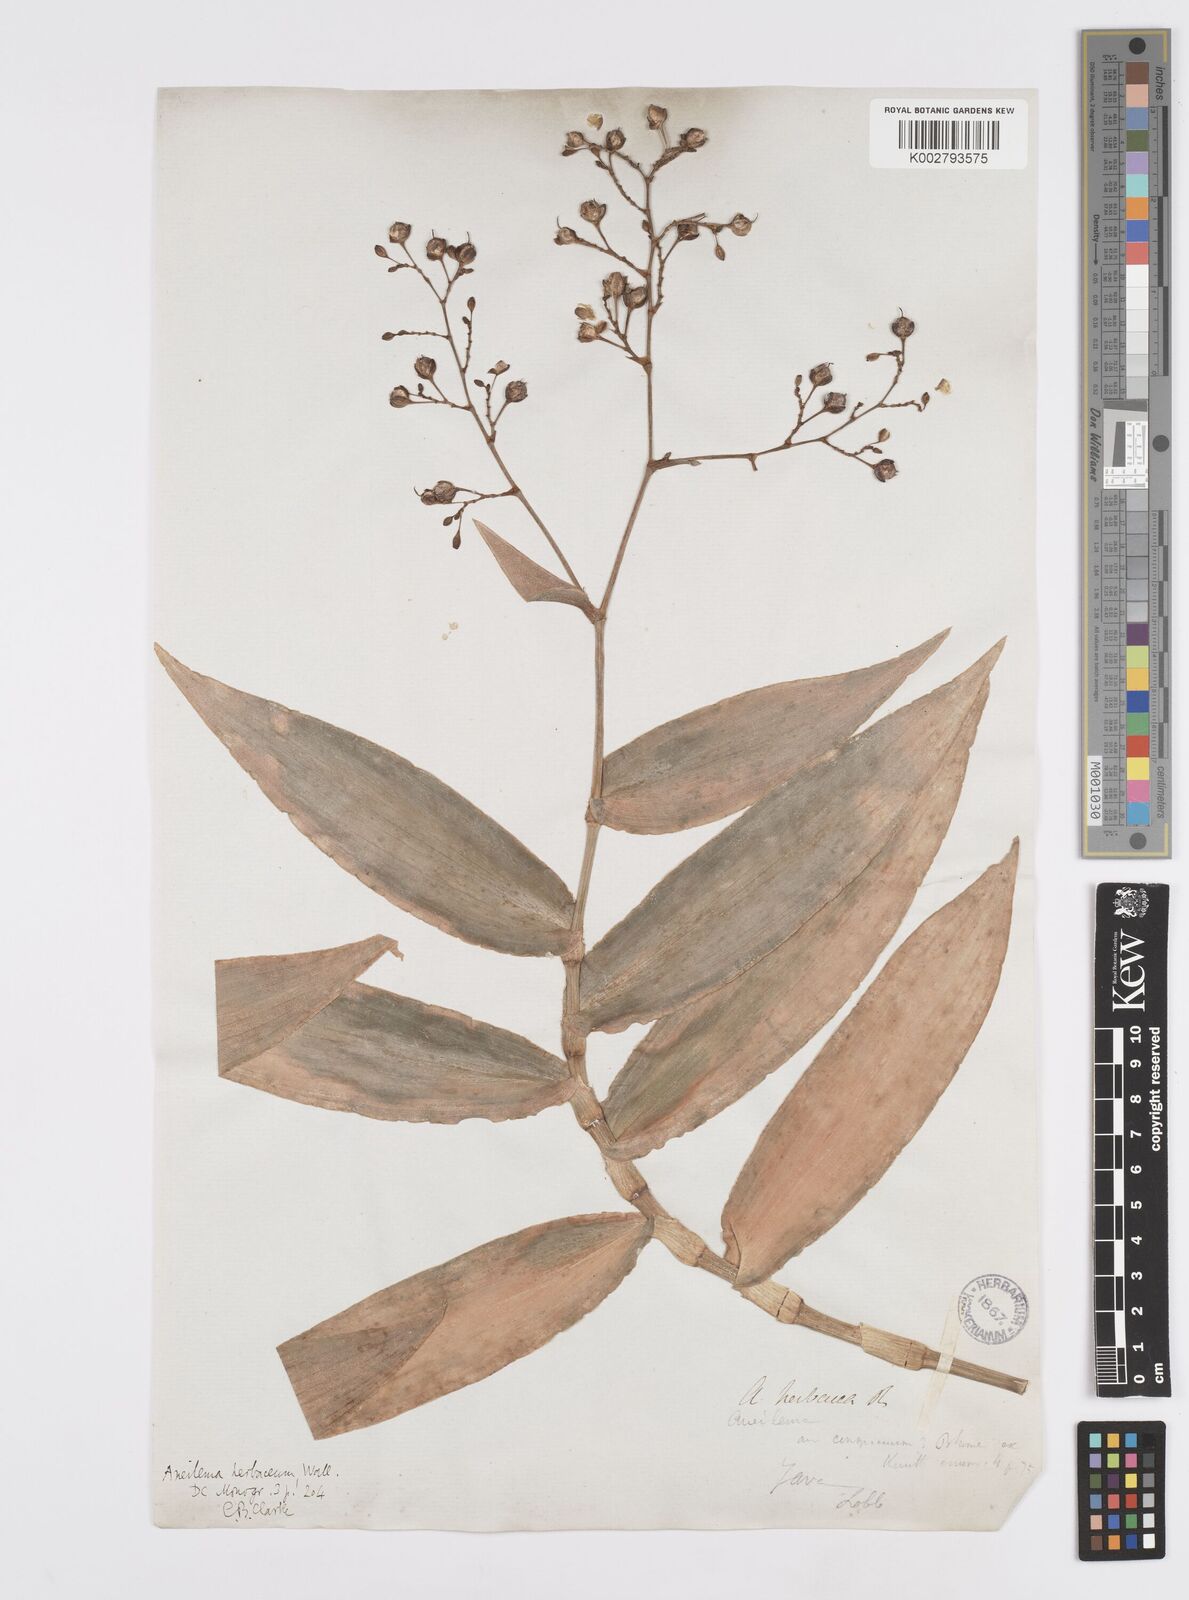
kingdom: Plantae
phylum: Tracheophyta
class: Liliopsida
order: Commelinales
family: Commelinaceae
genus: Murdannia
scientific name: Murdannia
